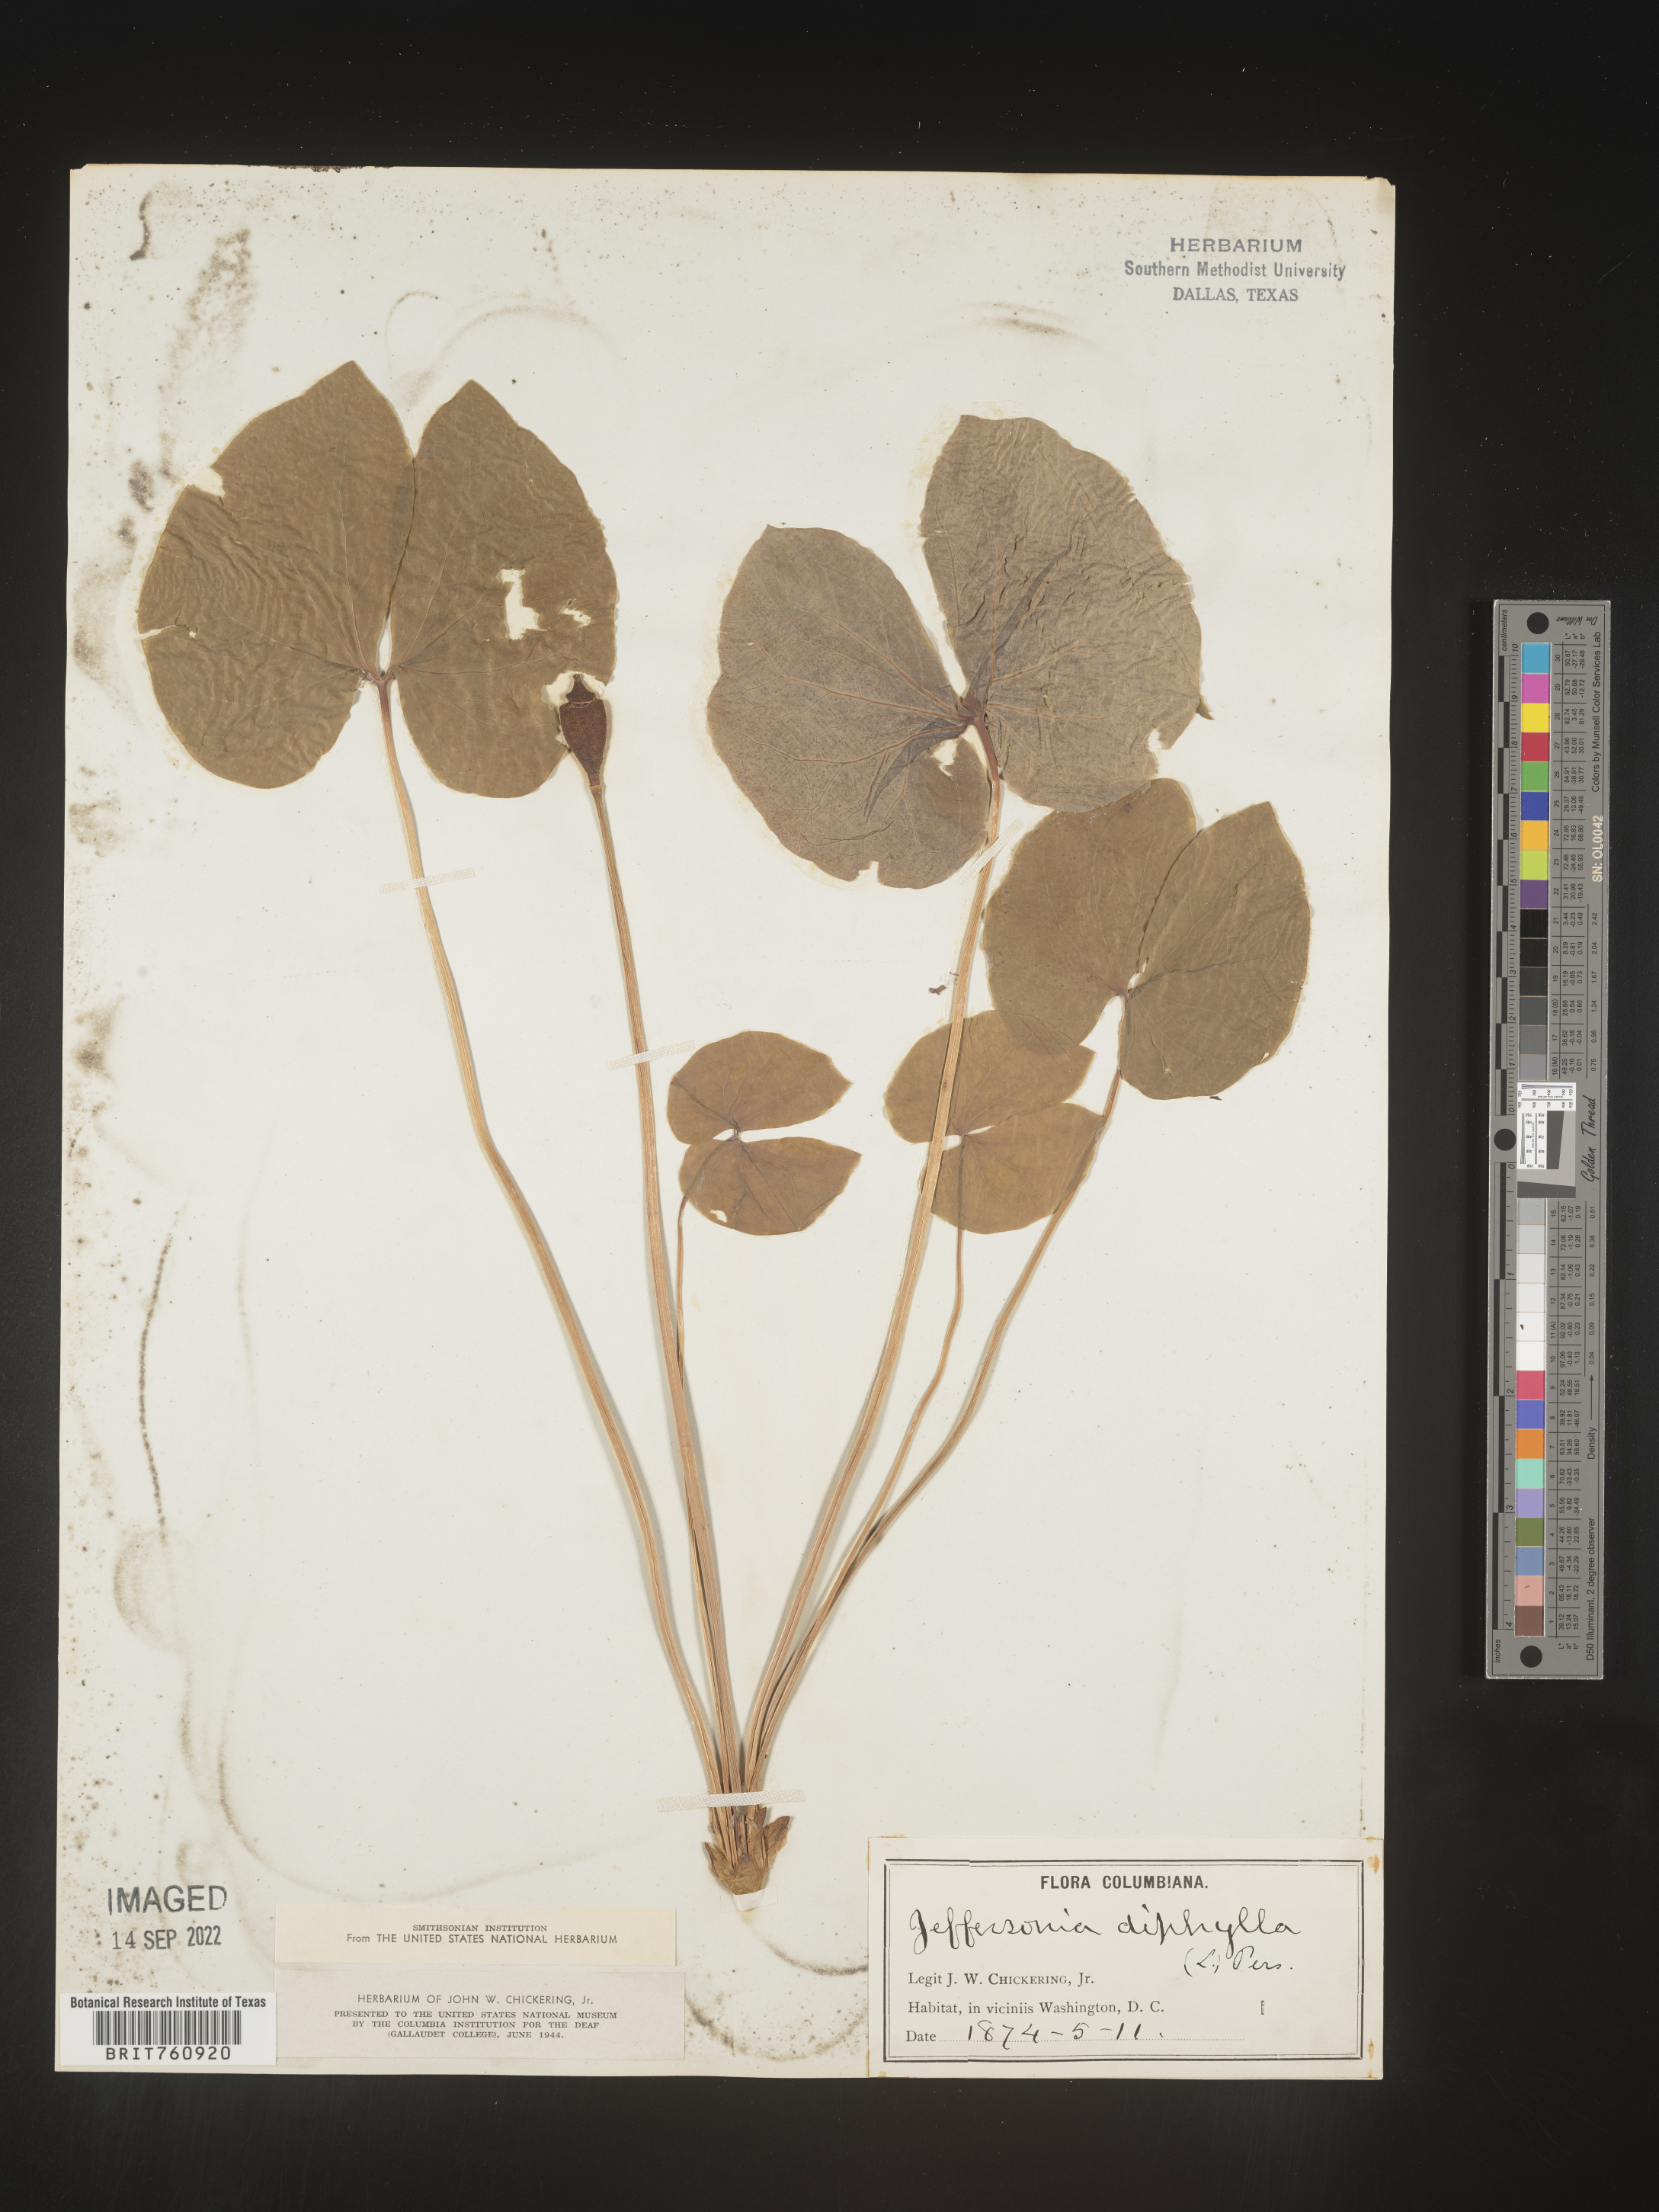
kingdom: Plantae
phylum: Tracheophyta
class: Magnoliopsida
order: Ranunculales
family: Berberidaceae
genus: Jeffersonia
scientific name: Jeffersonia
